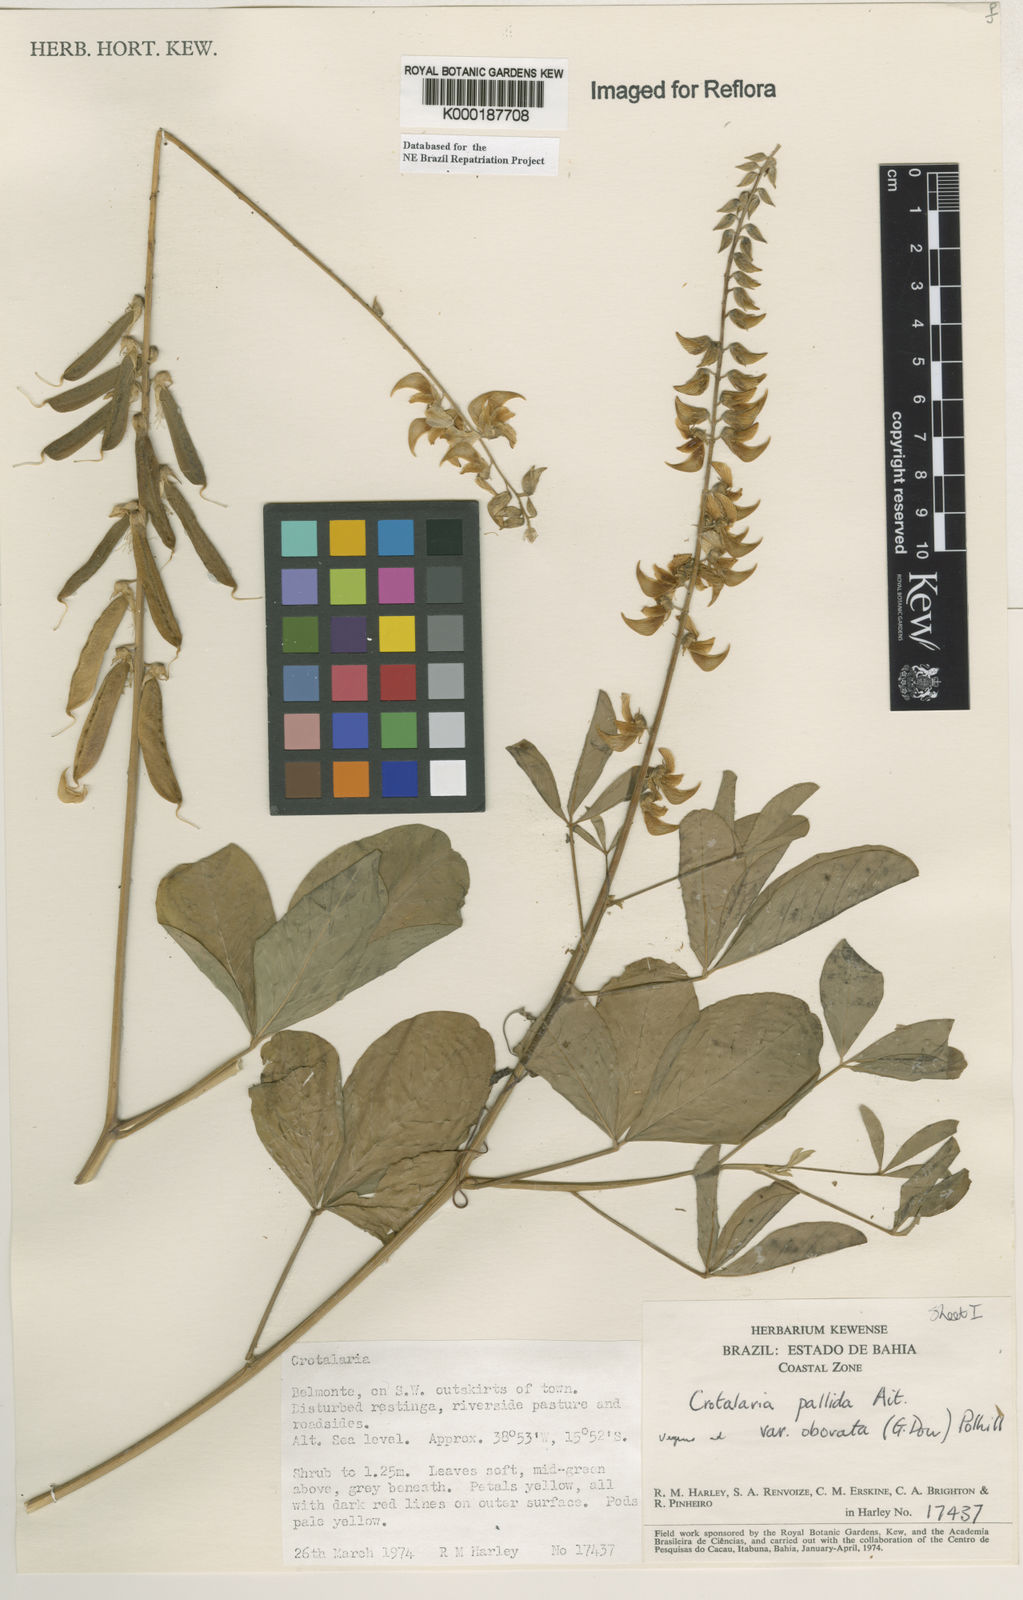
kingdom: Plantae
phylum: Tracheophyta
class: Magnoliopsida
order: Fabales
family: Fabaceae
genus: Crotalaria
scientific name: Crotalaria pallida
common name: Smooth rattlebox
